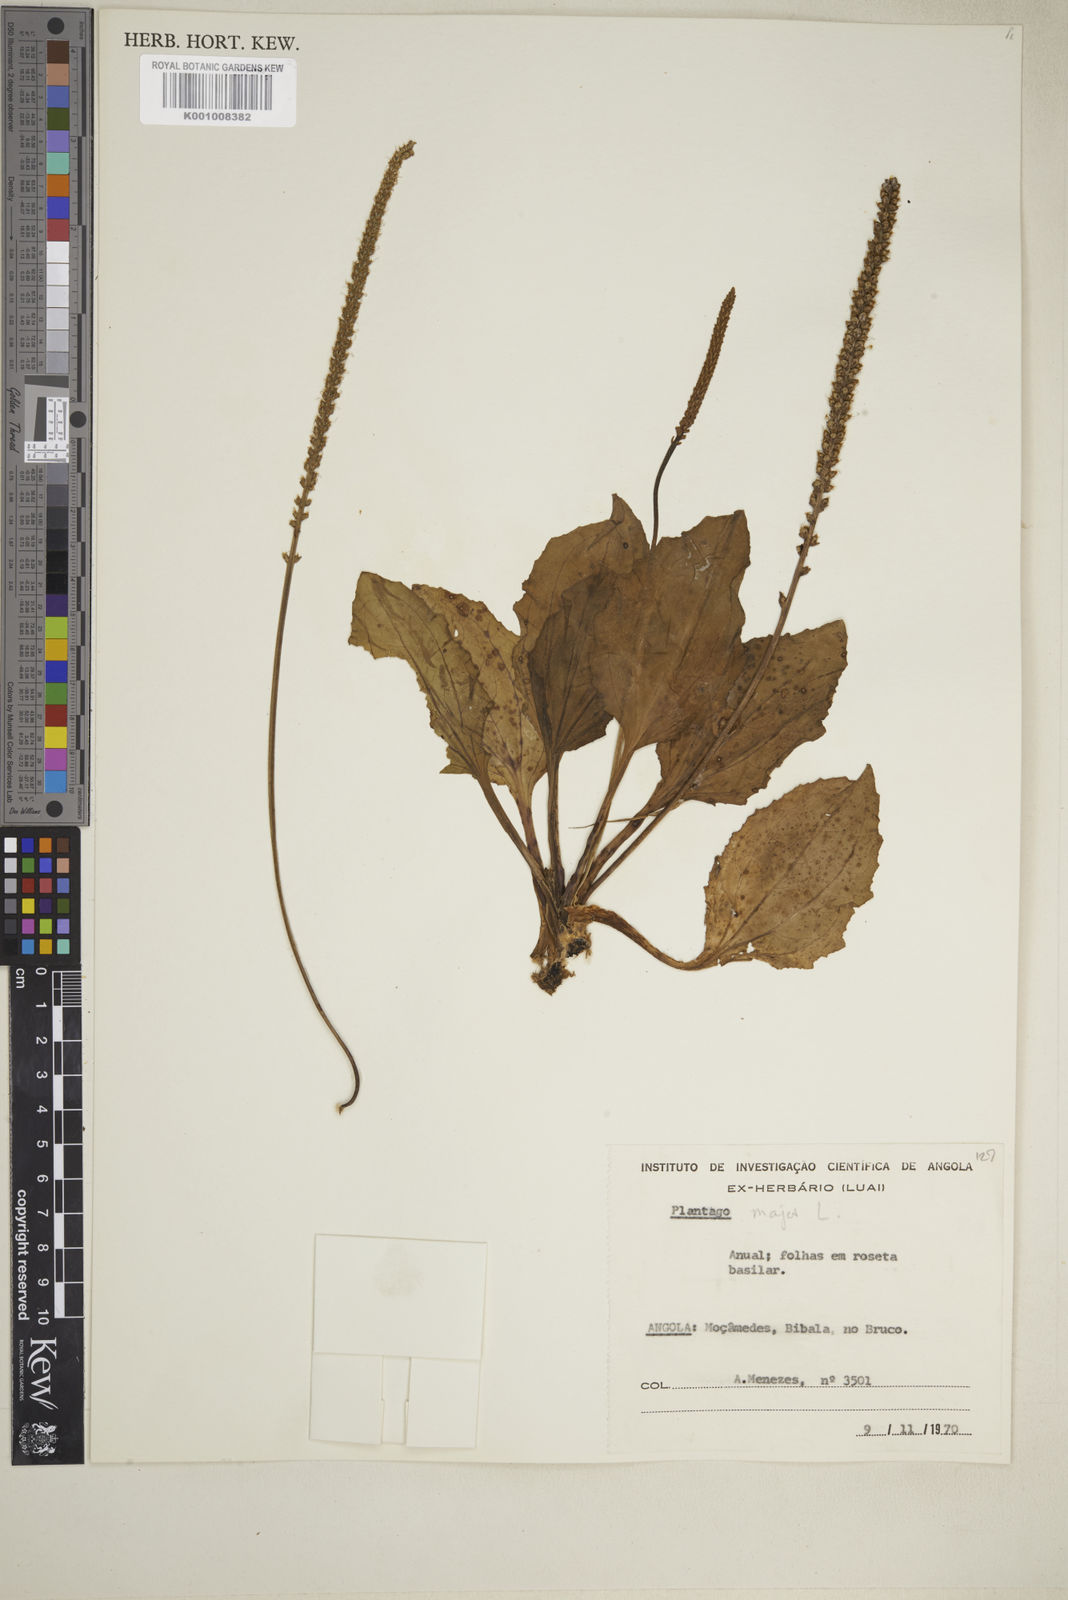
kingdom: Plantae
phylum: Tracheophyta
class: Magnoliopsida
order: Lamiales
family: Plantaginaceae
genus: Plantago
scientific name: Plantago major
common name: Common plantain
